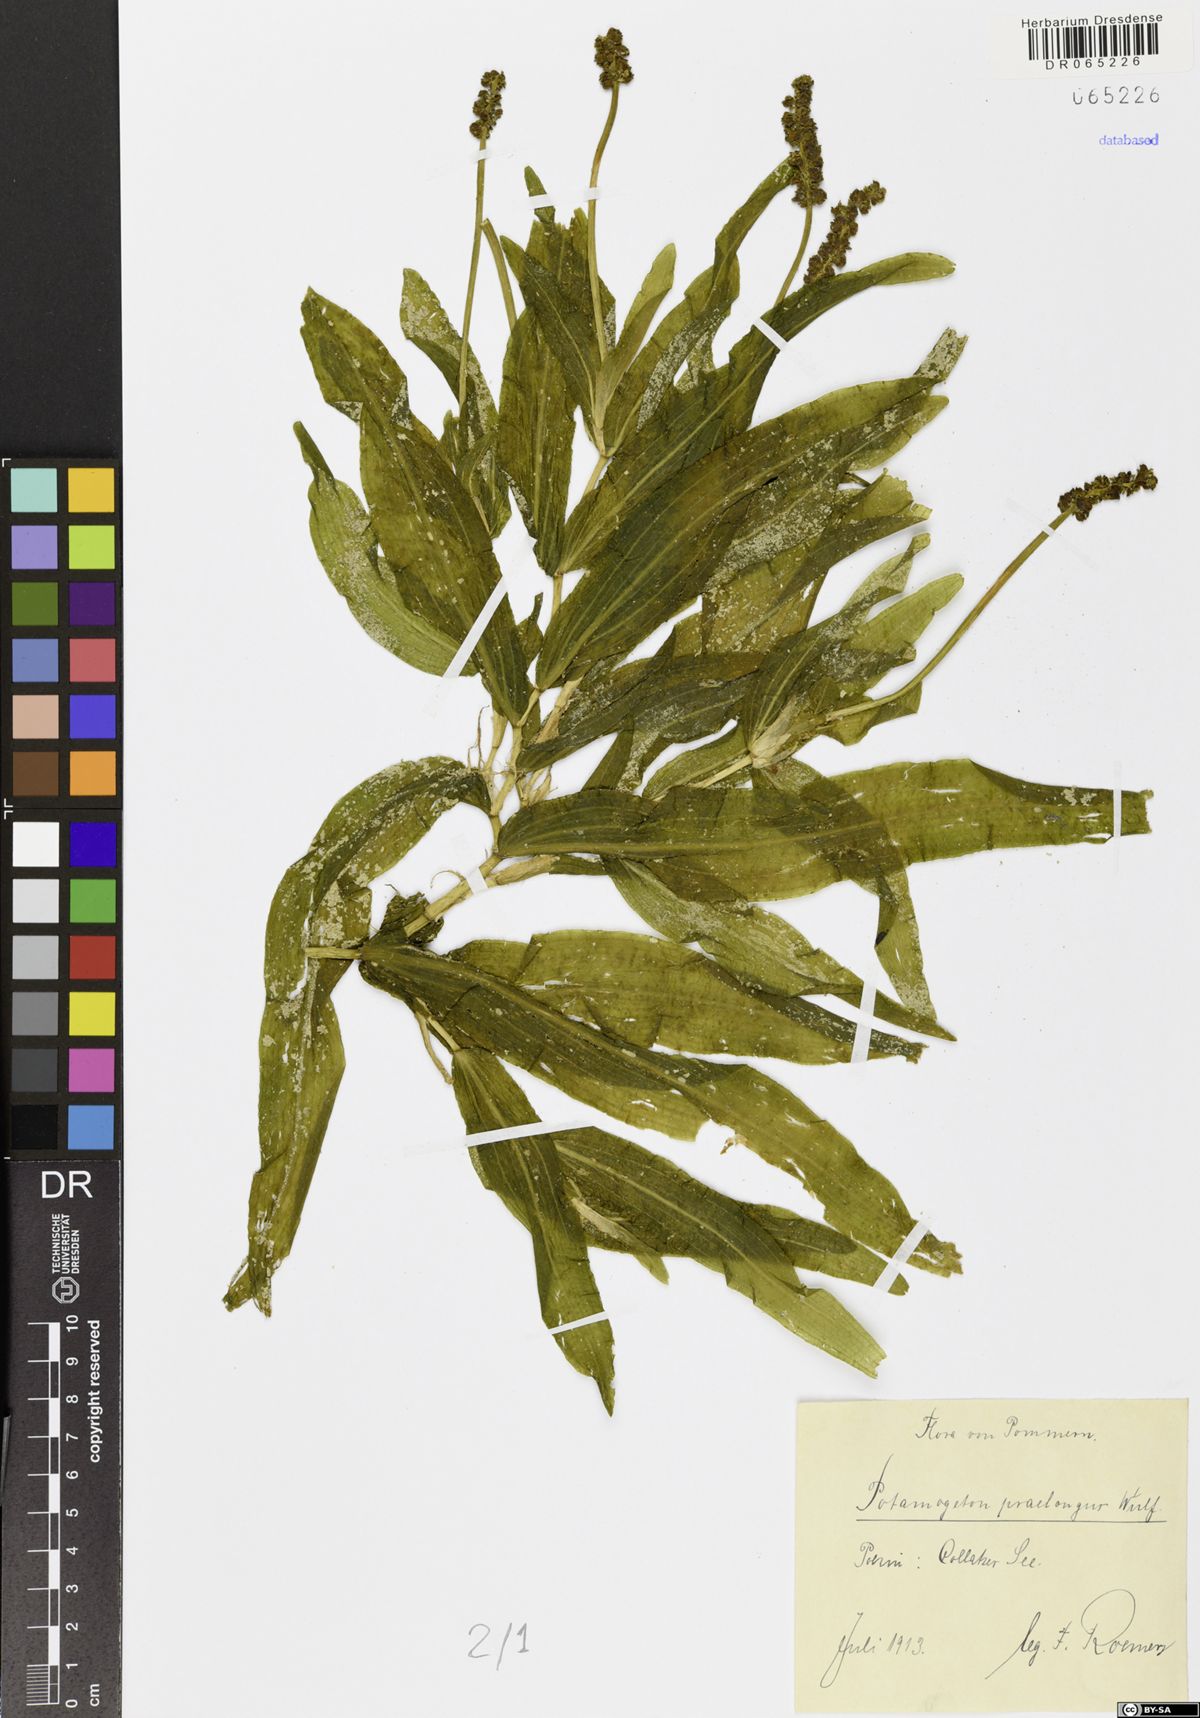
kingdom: Plantae
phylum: Tracheophyta
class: Liliopsida
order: Alismatales
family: Potamogetonaceae
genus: Potamogeton
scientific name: Potamogeton praelongus
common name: Long-stalked pondweed
